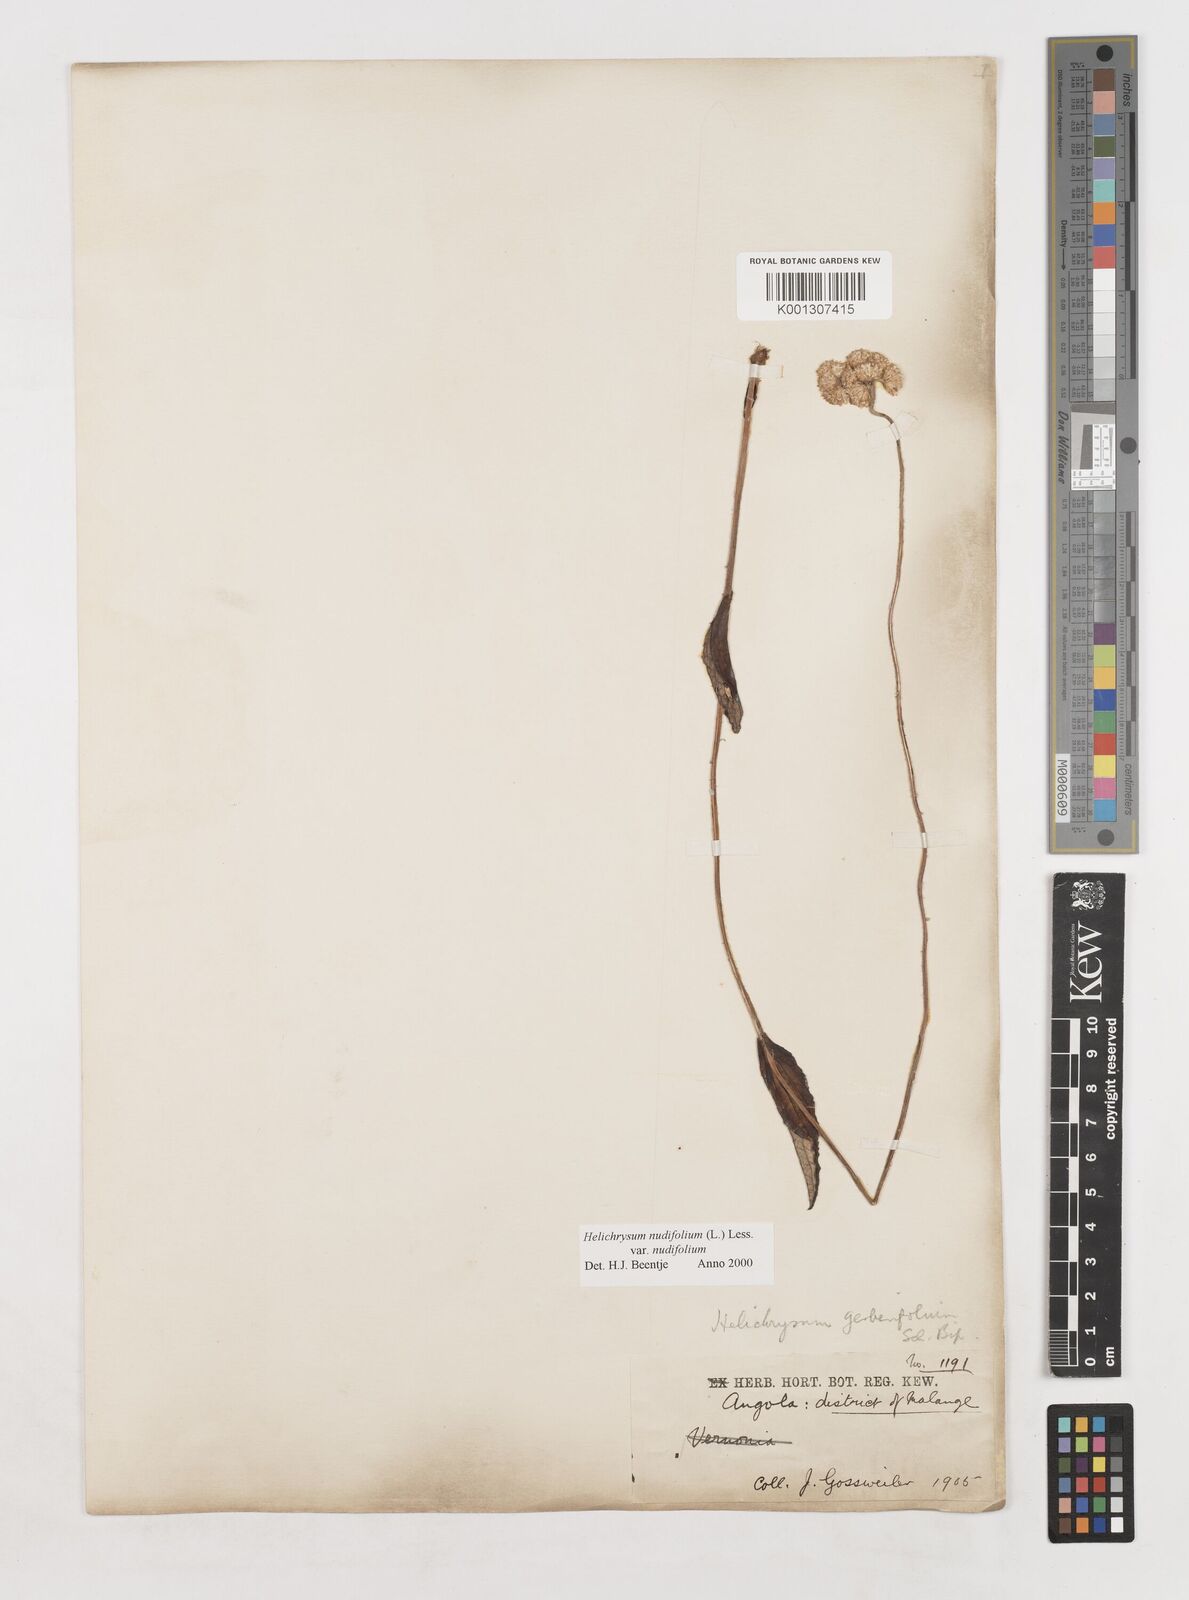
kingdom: Plantae
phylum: Tracheophyta
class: Magnoliopsida
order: Asterales
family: Asteraceae
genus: Helichrysum
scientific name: Helichrysum nudifolium
